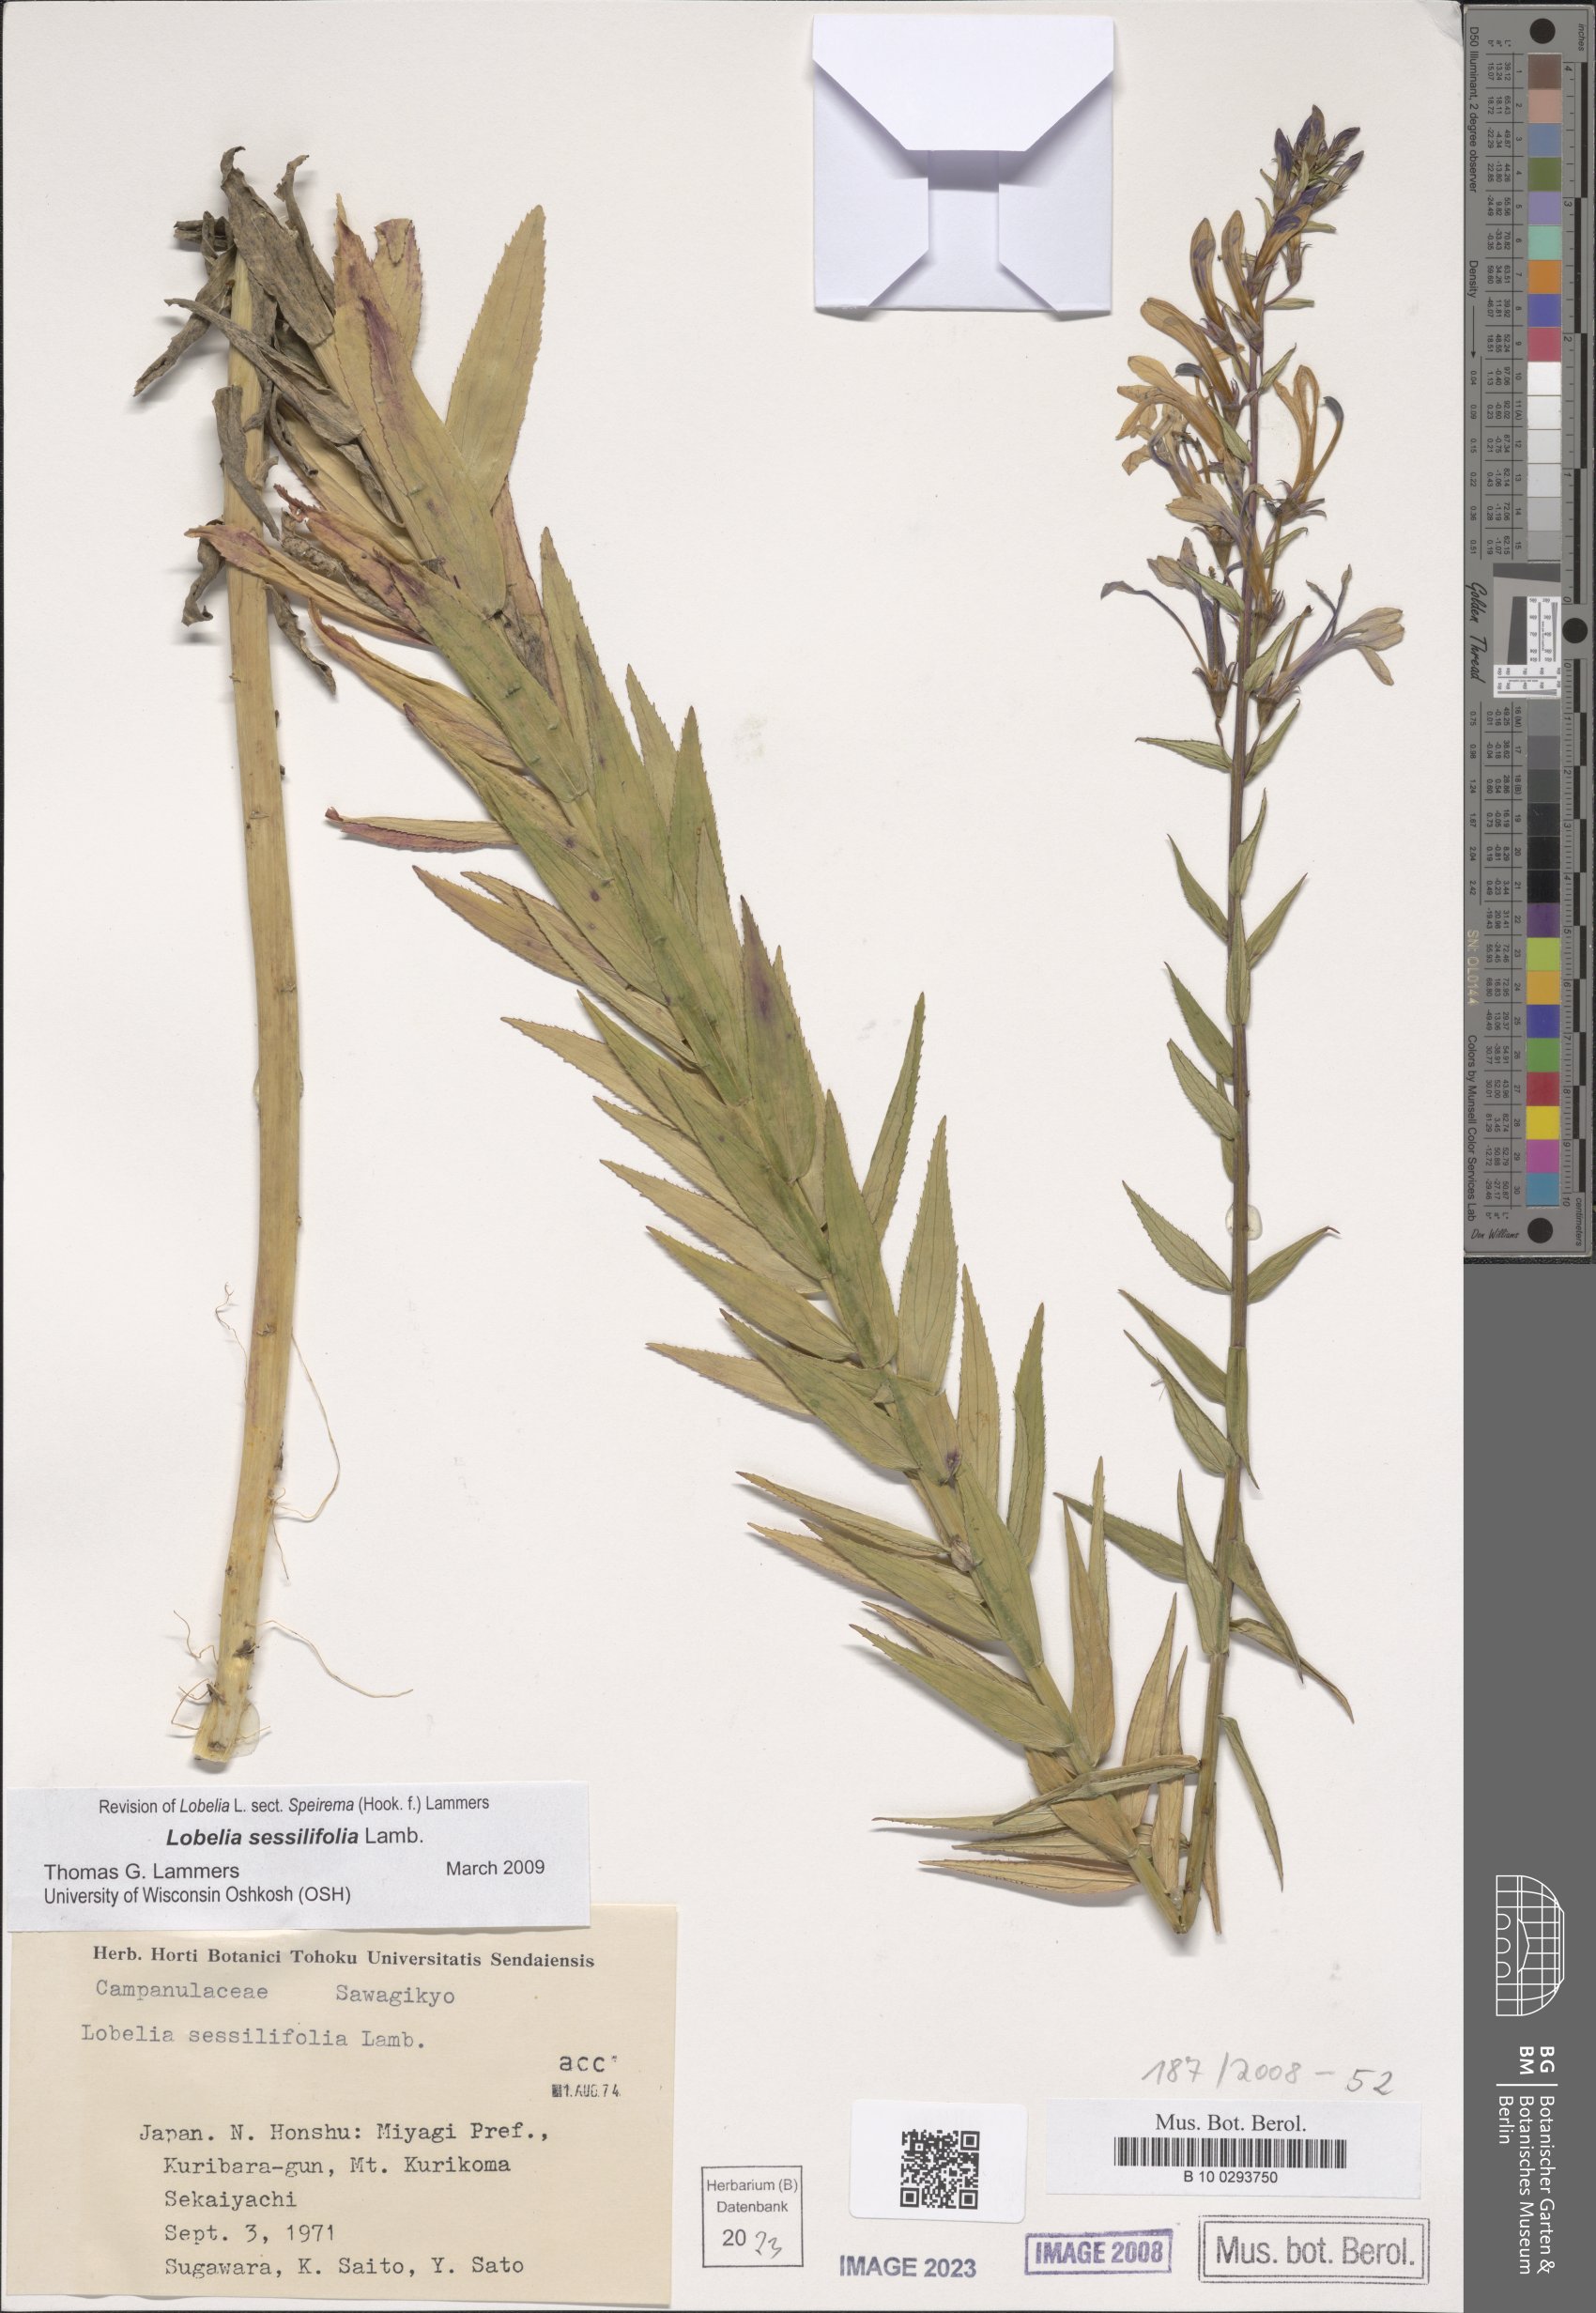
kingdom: Plantae
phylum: Tracheophyta
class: Magnoliopsida
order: Asterales
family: Campanulaceae
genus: Lobelia
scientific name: Lobelia sessilifolia
